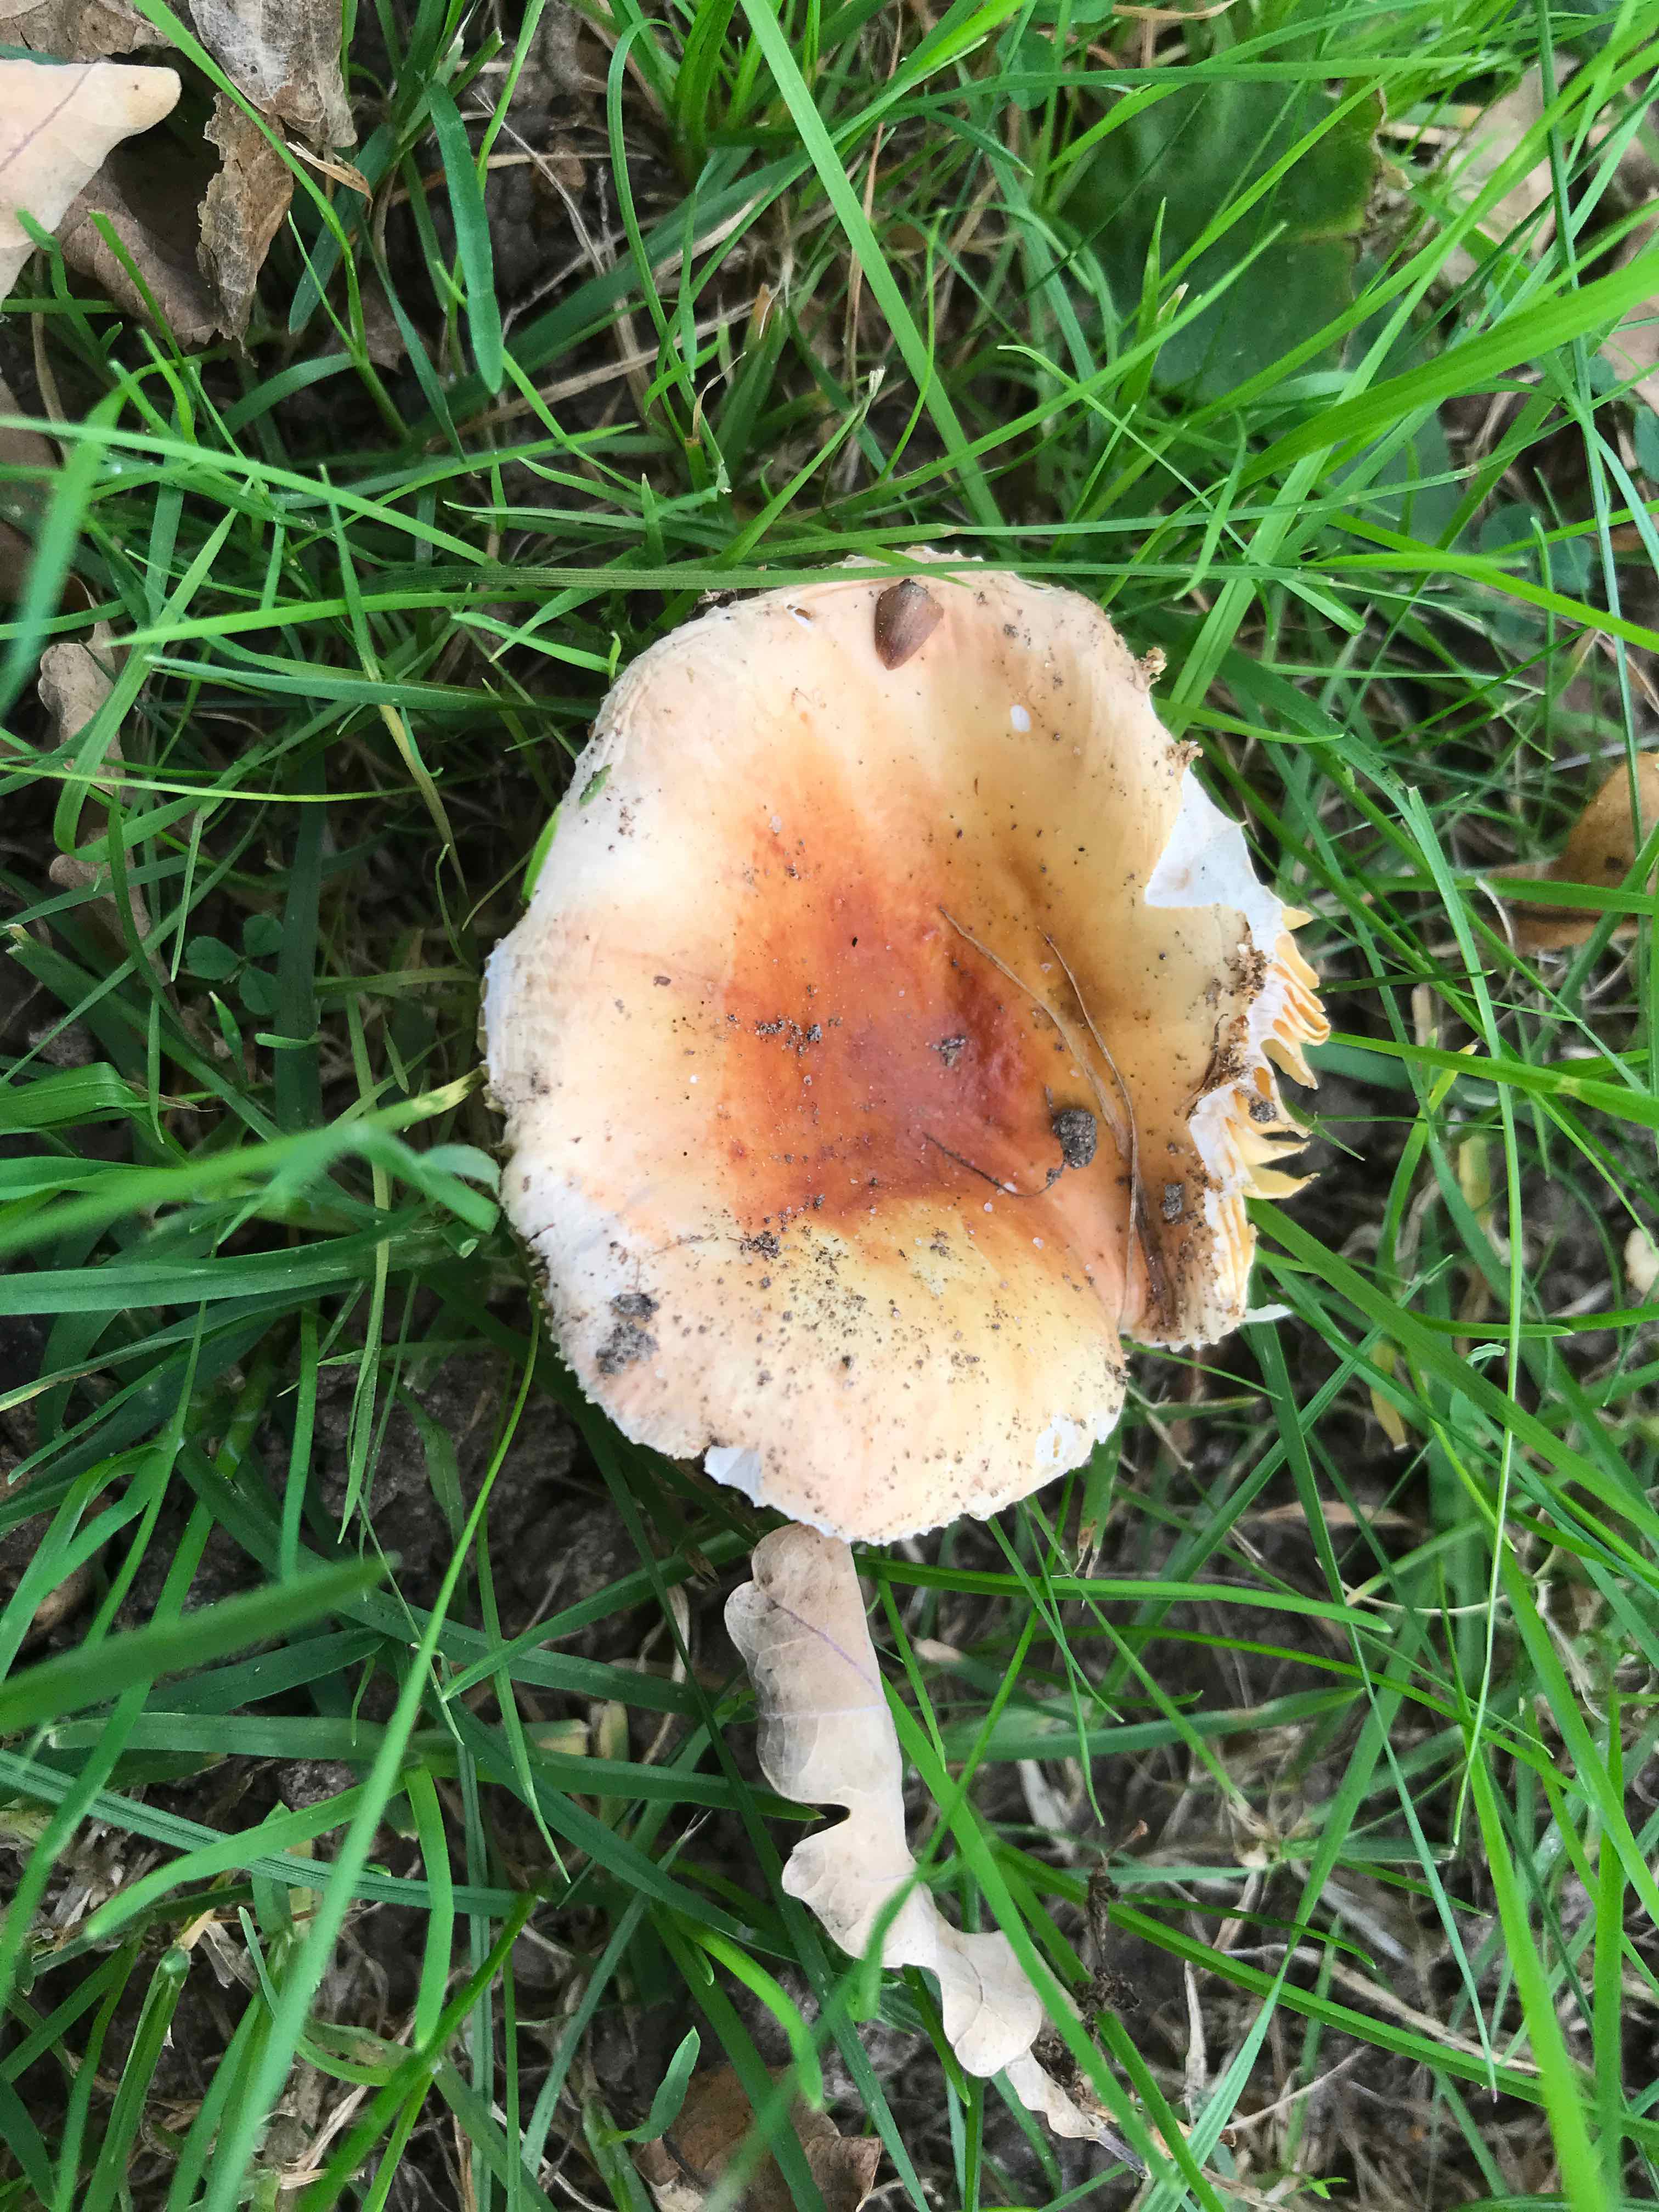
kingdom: Fungi
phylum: Basidiomycota
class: Agaricomycetes
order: Russulales
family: Russulaceae
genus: Russula
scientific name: Russula risigallina
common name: abrikos-skørhat
